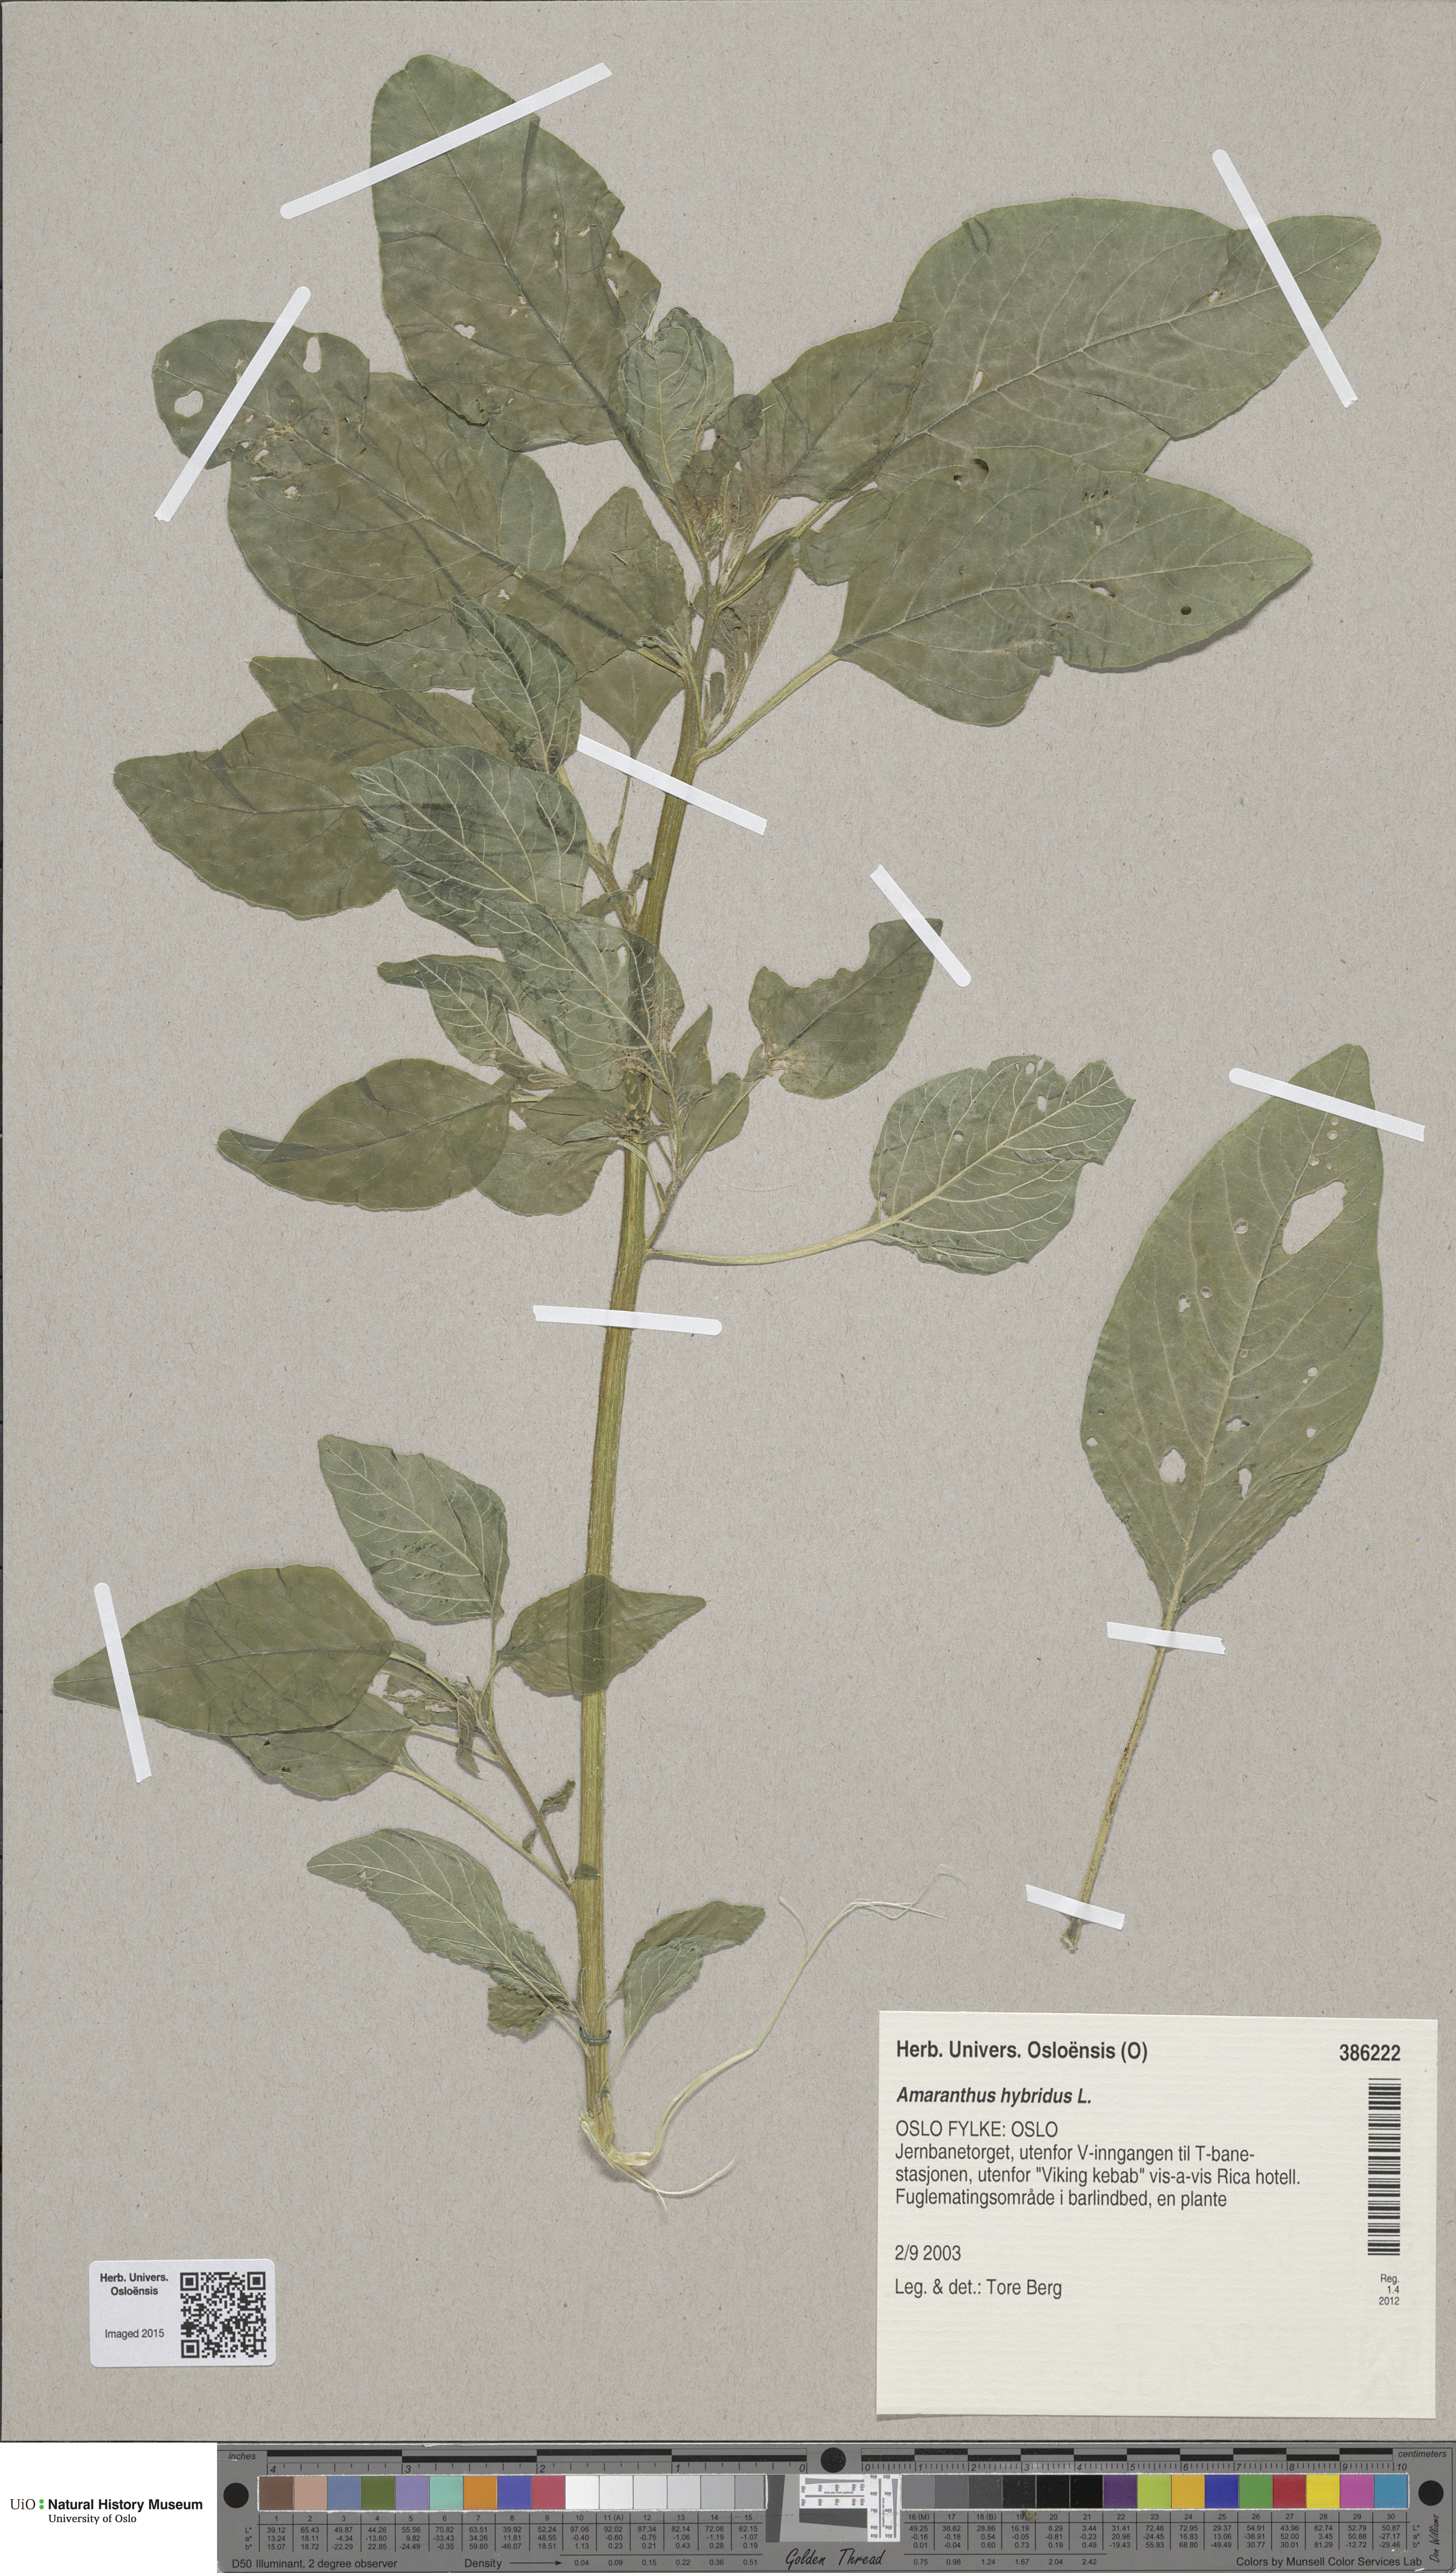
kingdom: Plantae
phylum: Tracheophyta
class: Magnoliopsida
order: Caryophyllales
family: Amaranthaceae
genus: Amaranthus
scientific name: Amaranthus hybridus
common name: Green amaranth
